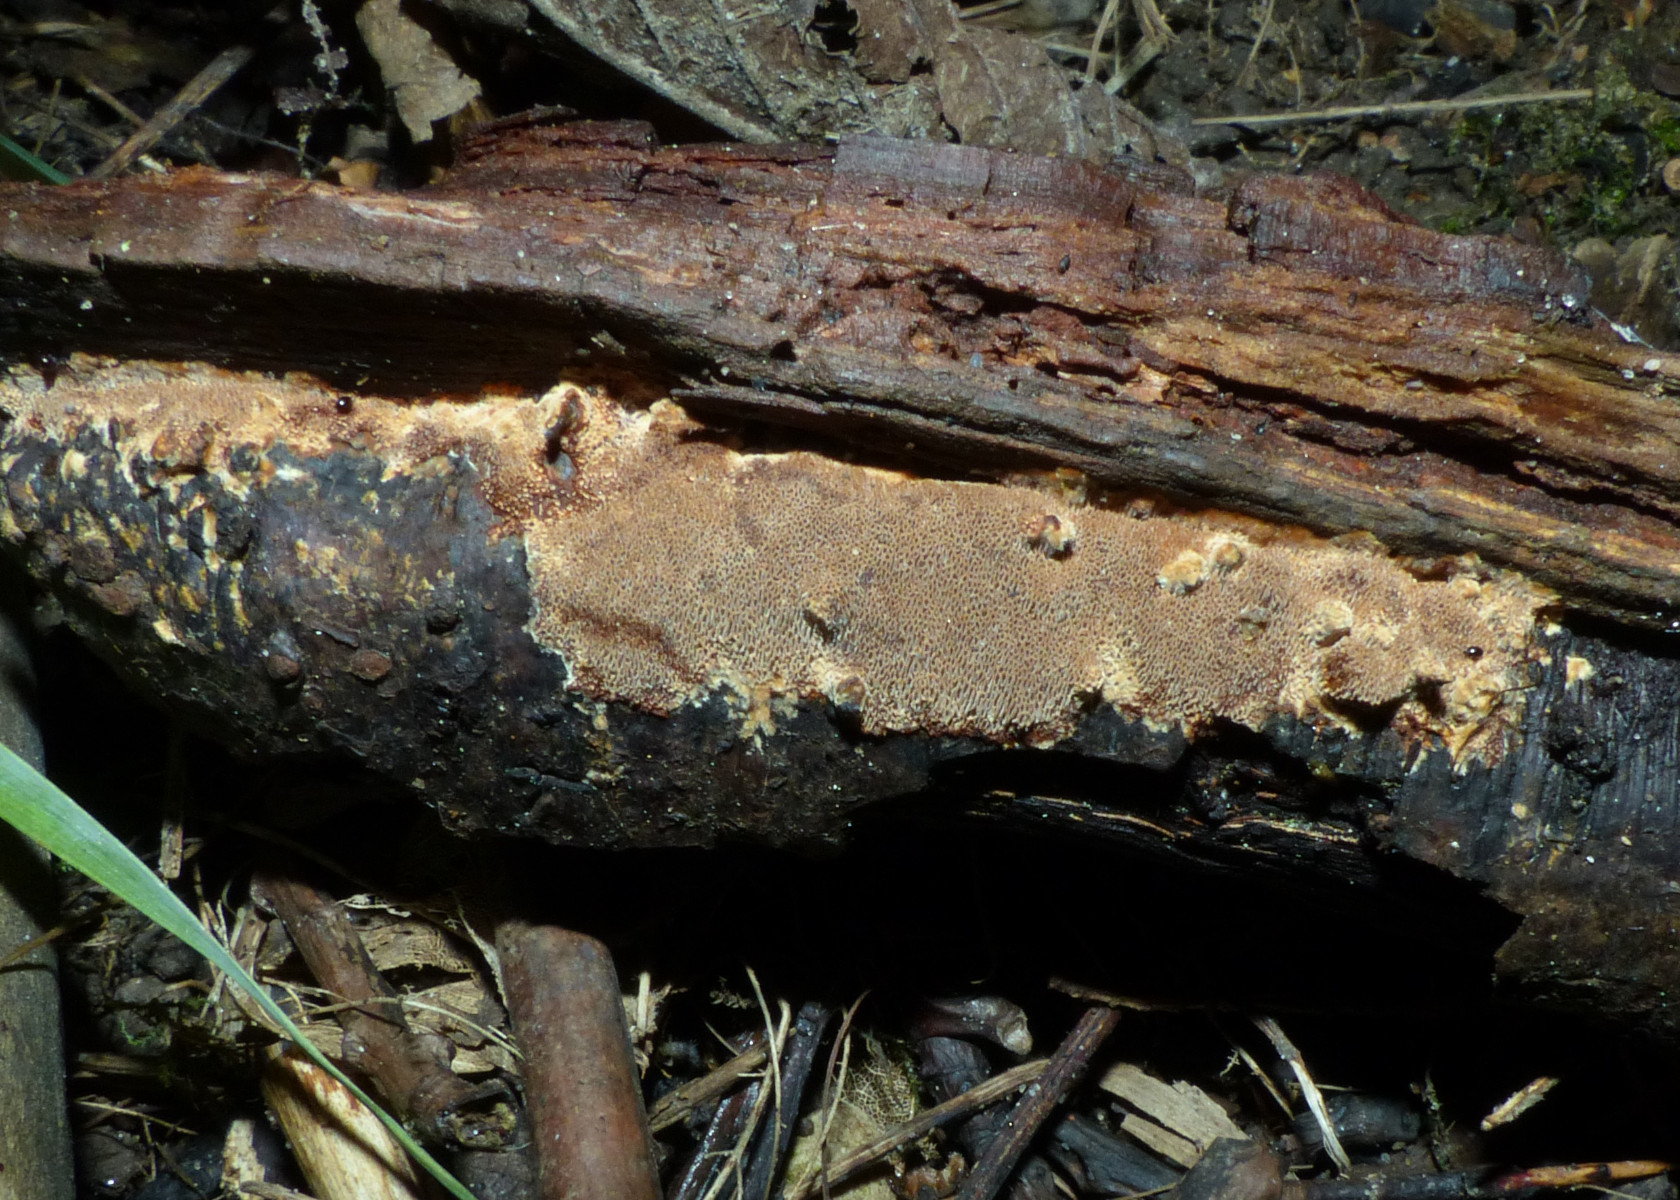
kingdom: Fungi
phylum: Basidiomycota
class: Agaricomycetes
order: Hymenochaetales
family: Hymenochaetaceae
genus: Fuscoporia
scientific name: Fuscoporia contigua
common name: grov ildporesvamp
